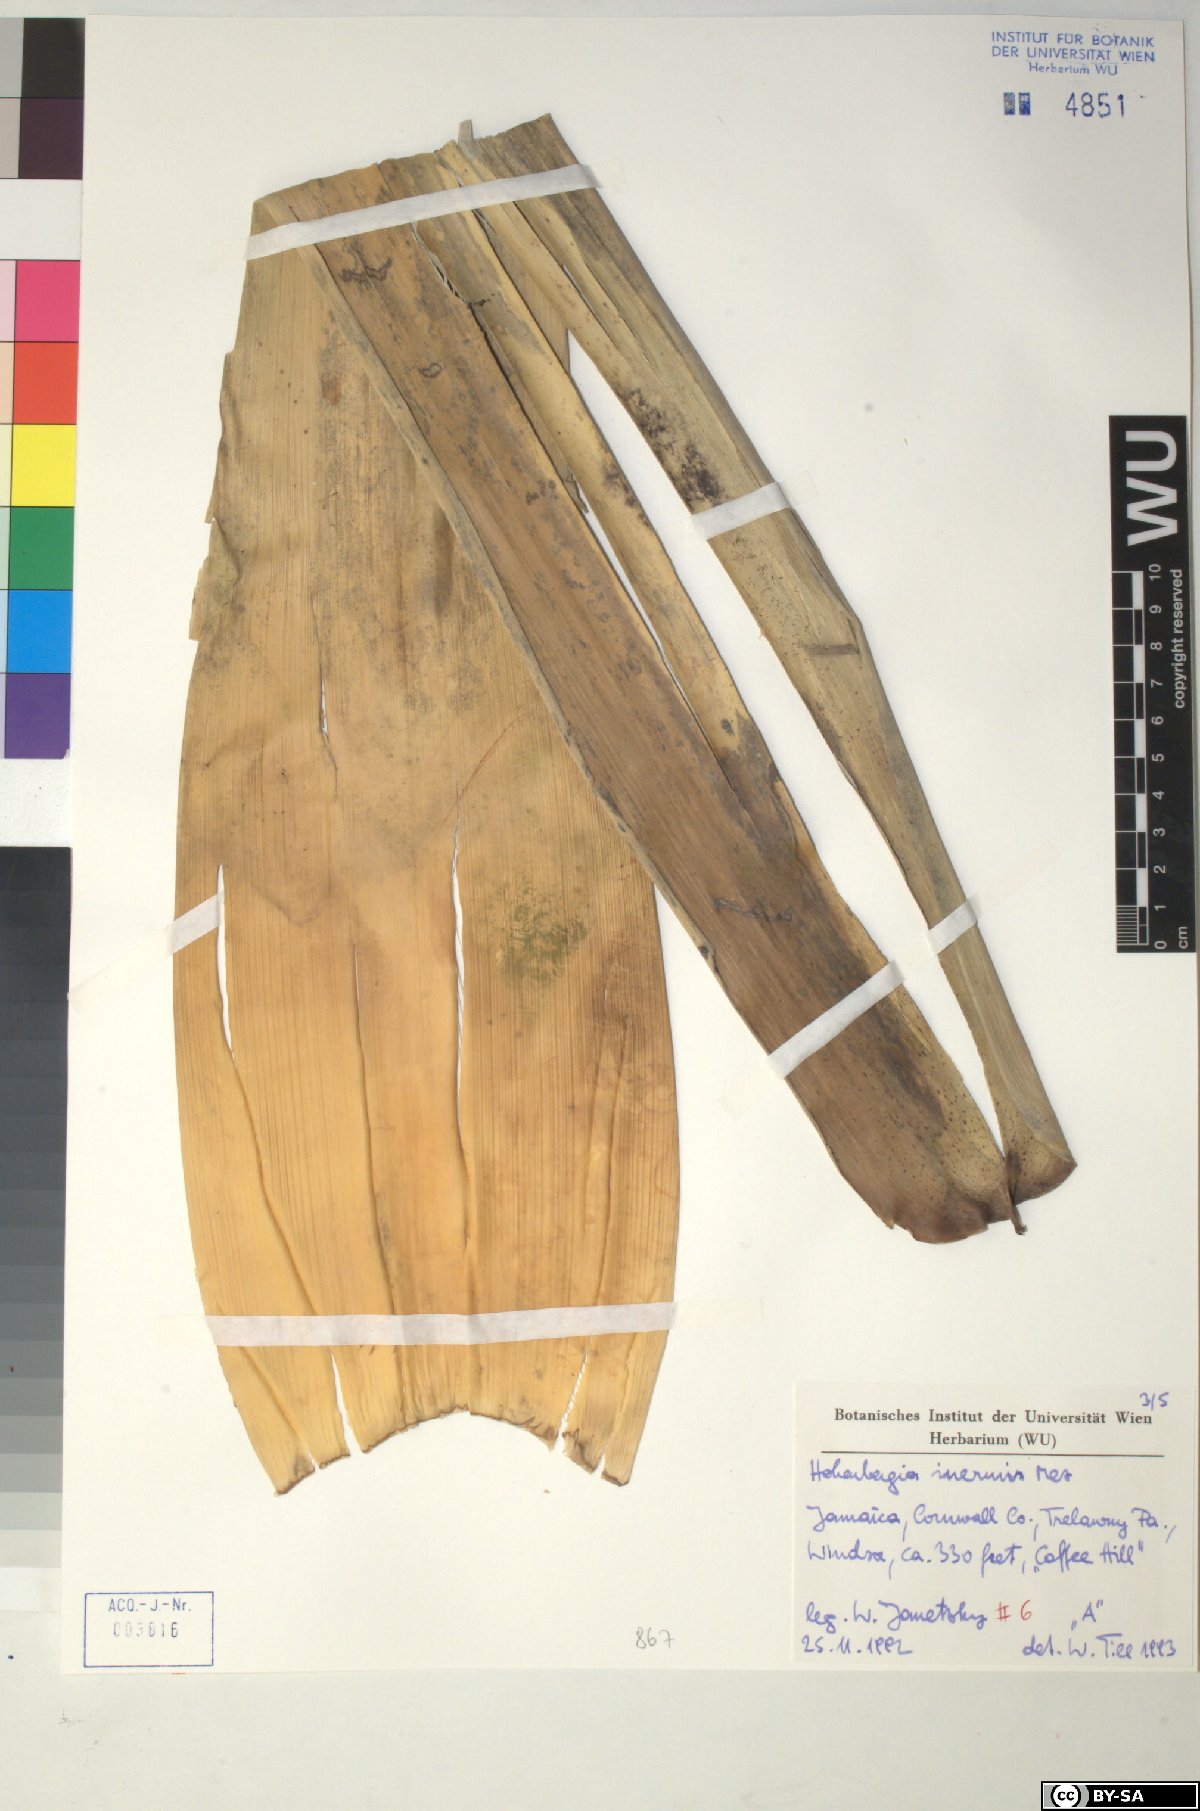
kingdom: Plantae
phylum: Tracheophyta
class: Liliopsida
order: Poales
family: Bromeliaceae
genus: Wittmackia
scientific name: Wittmackia inermis
